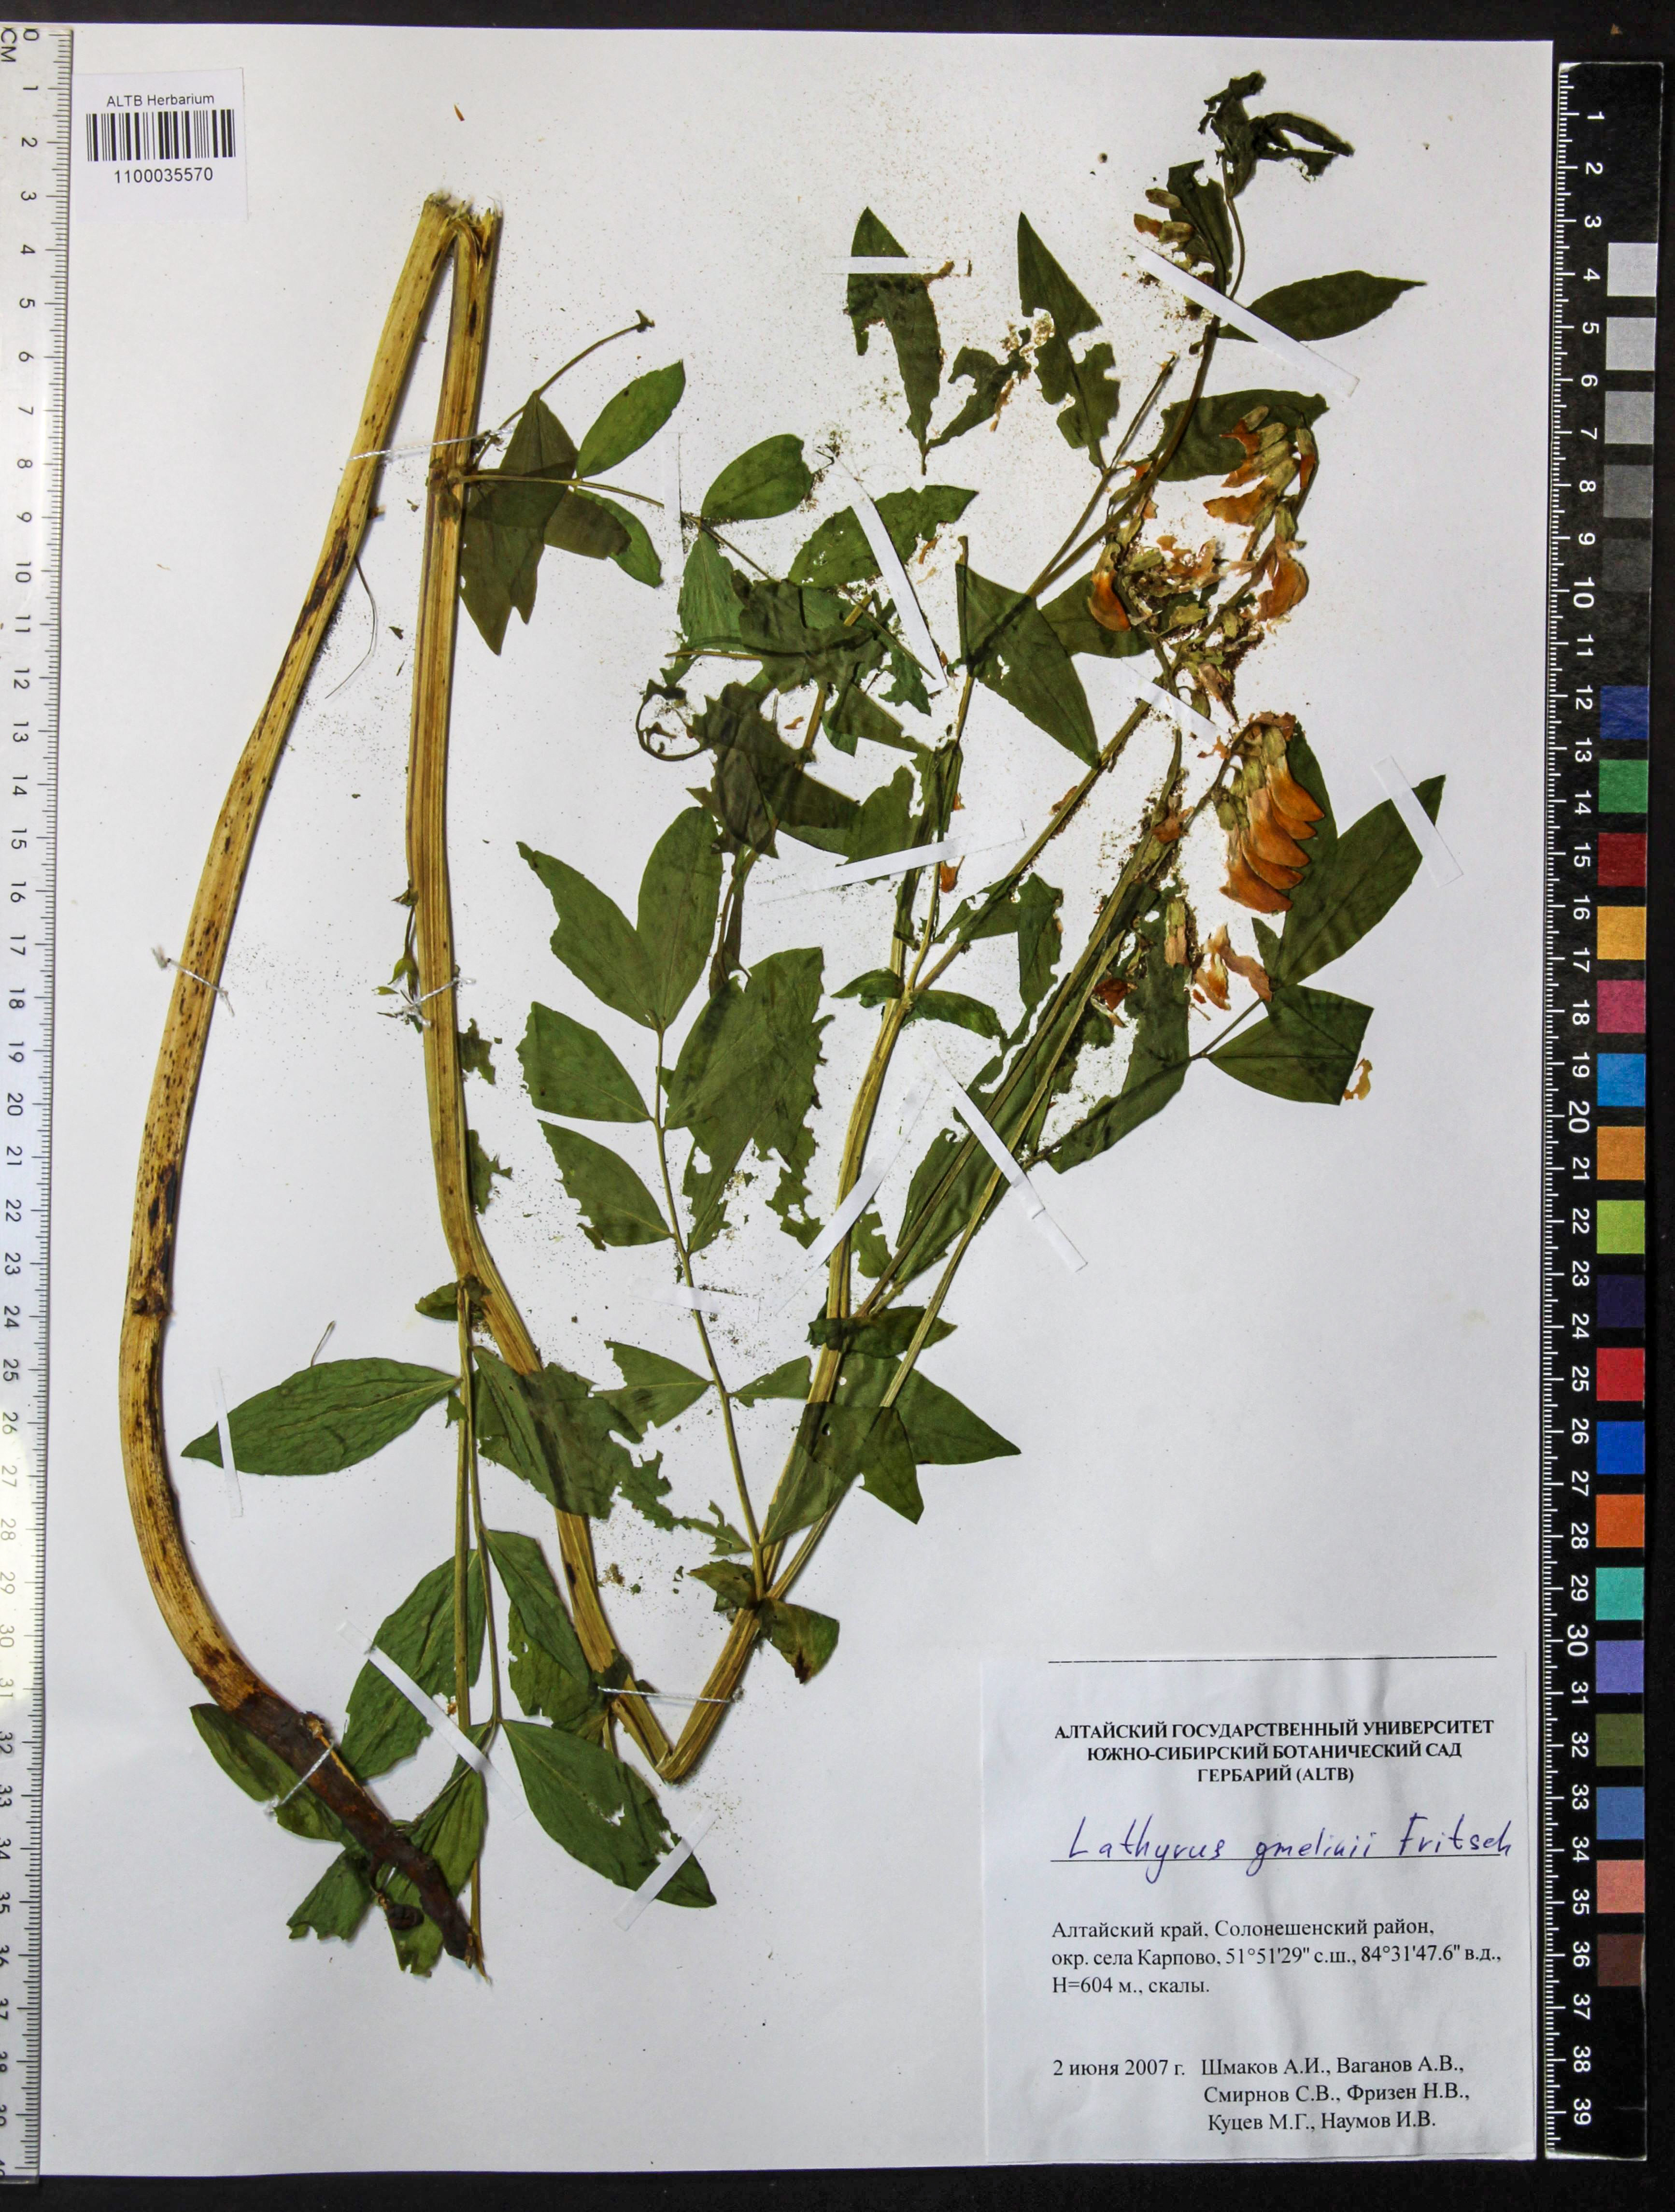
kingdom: Plantae
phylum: Tracheophyta
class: Magnoliopsida
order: Fabales
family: Fabaceae
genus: Lathyrus
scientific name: Lathyrus gmelinii
